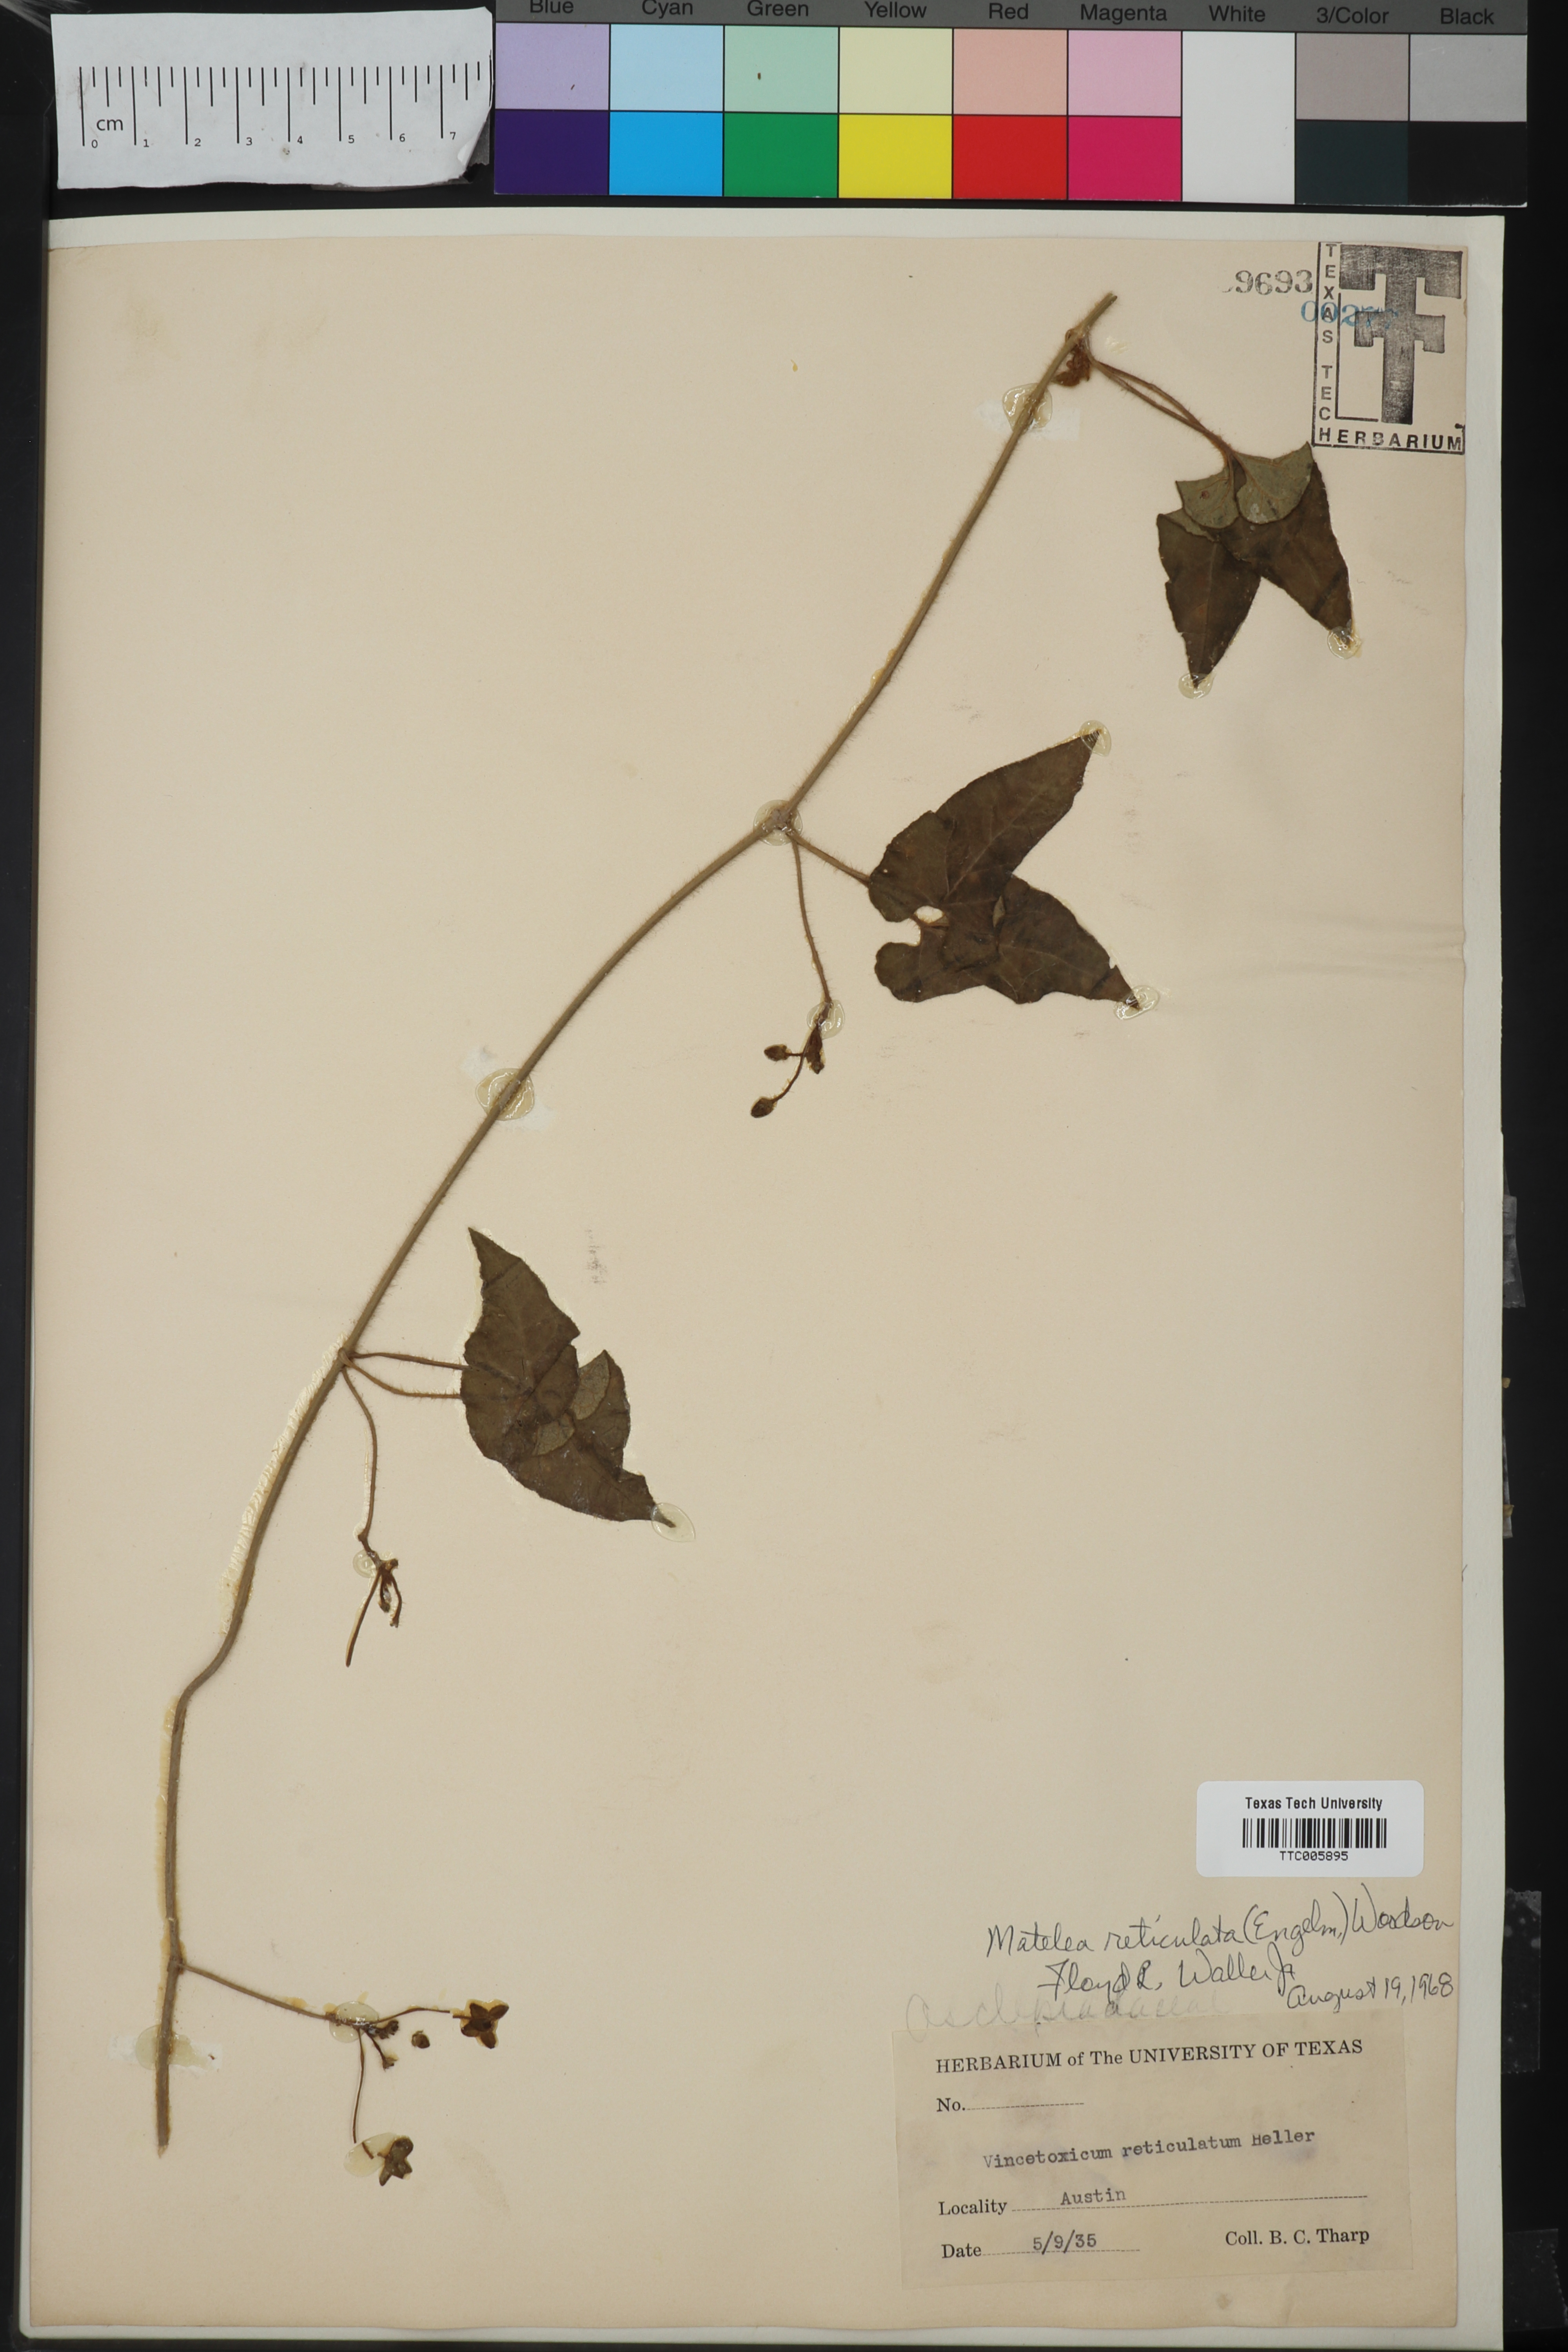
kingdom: Plantae
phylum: Tracheophyta
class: Magnoliopsida
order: Gentianales
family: Apocynaceae
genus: Dictyanthus
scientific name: Dictyanthus reticulatus
